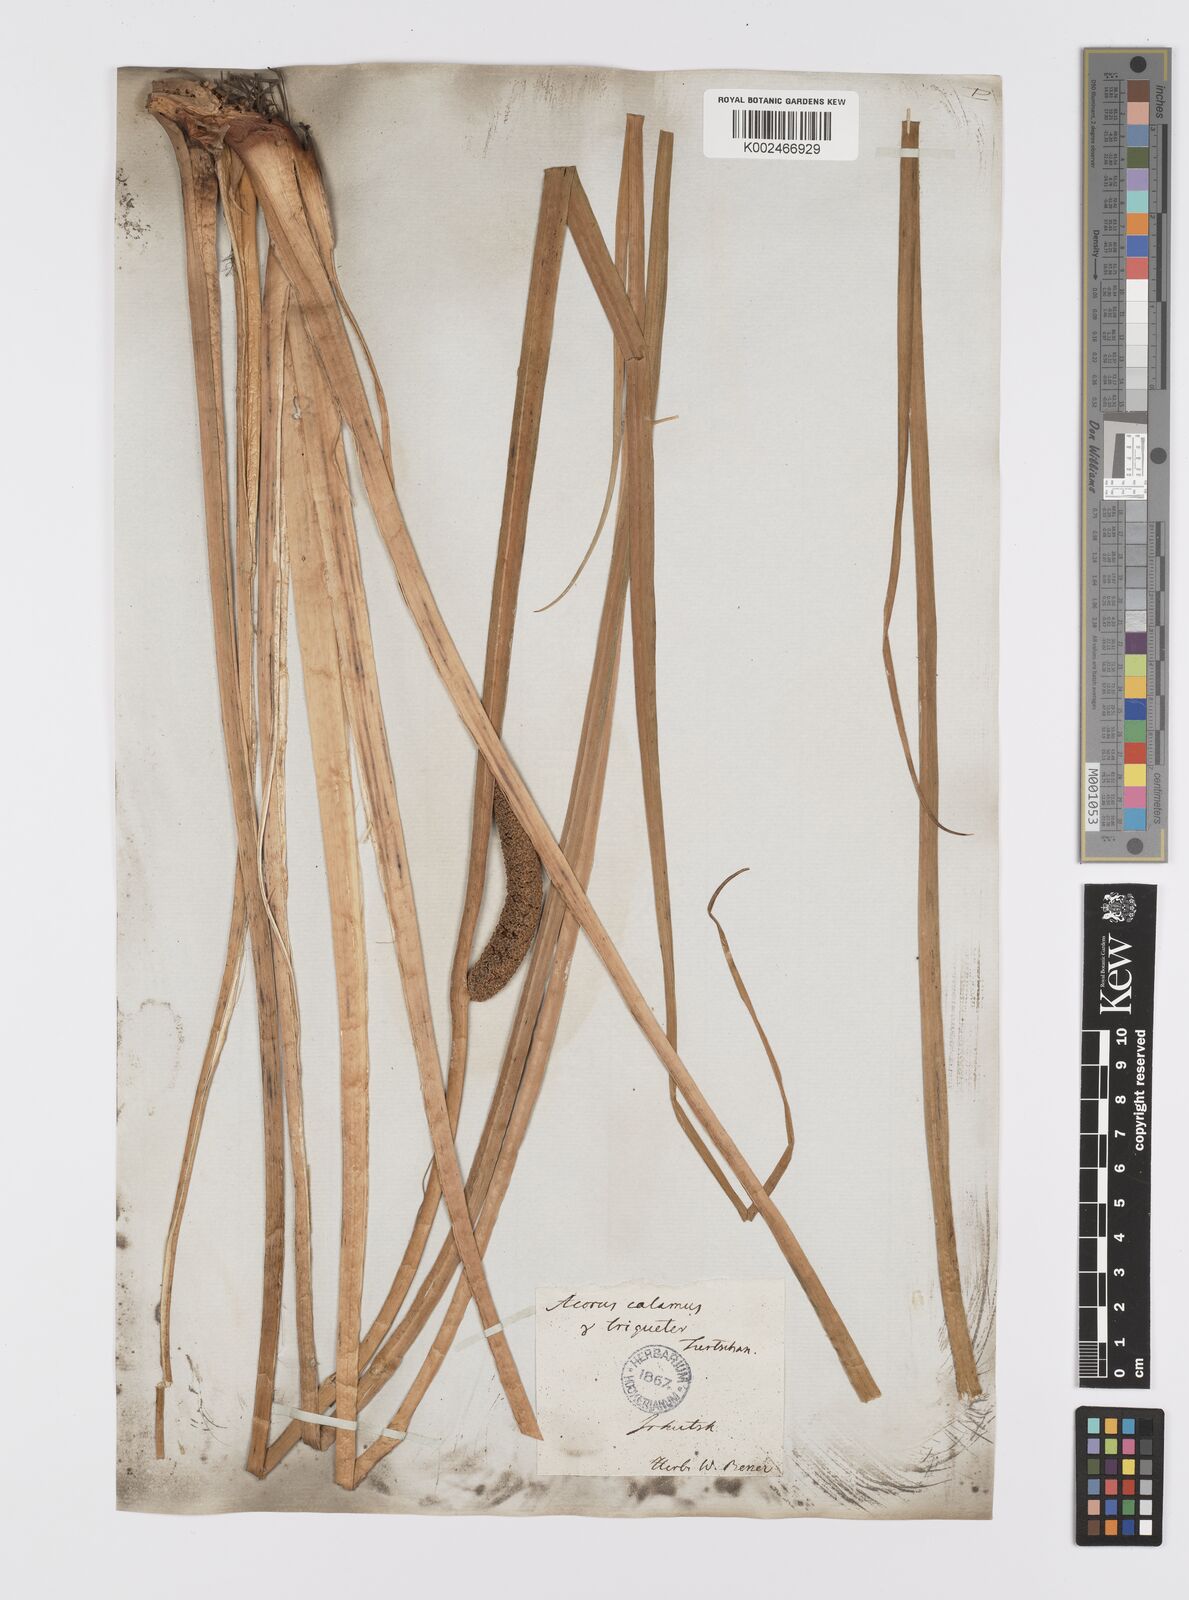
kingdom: Plantae
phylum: Tracheophyta
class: Liliopsida
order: Acorales
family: Acoraceae
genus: Acorus
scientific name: Acorus calamus
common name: Sweet-flag
